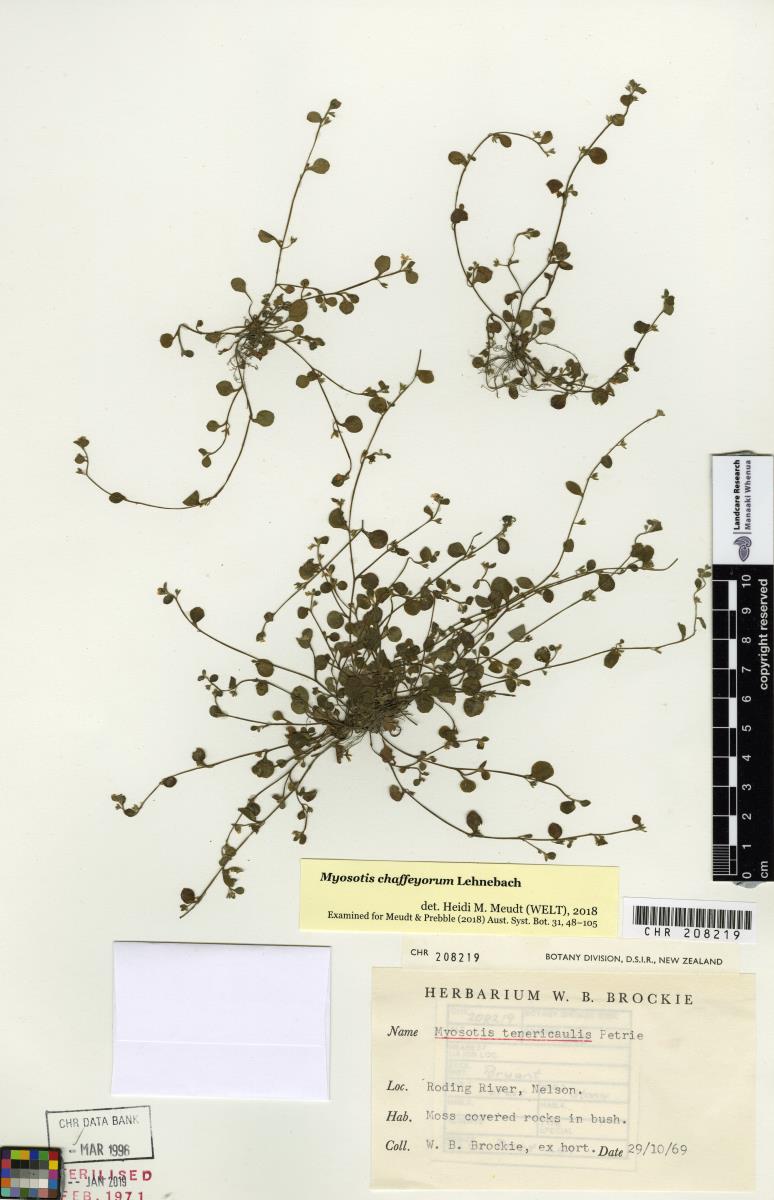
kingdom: Plantae
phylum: Tracheophyta
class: Magnoliopsida
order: Boraginales
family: Boraginaceae
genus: Myosotis
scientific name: Myosotis chaffeyorum
